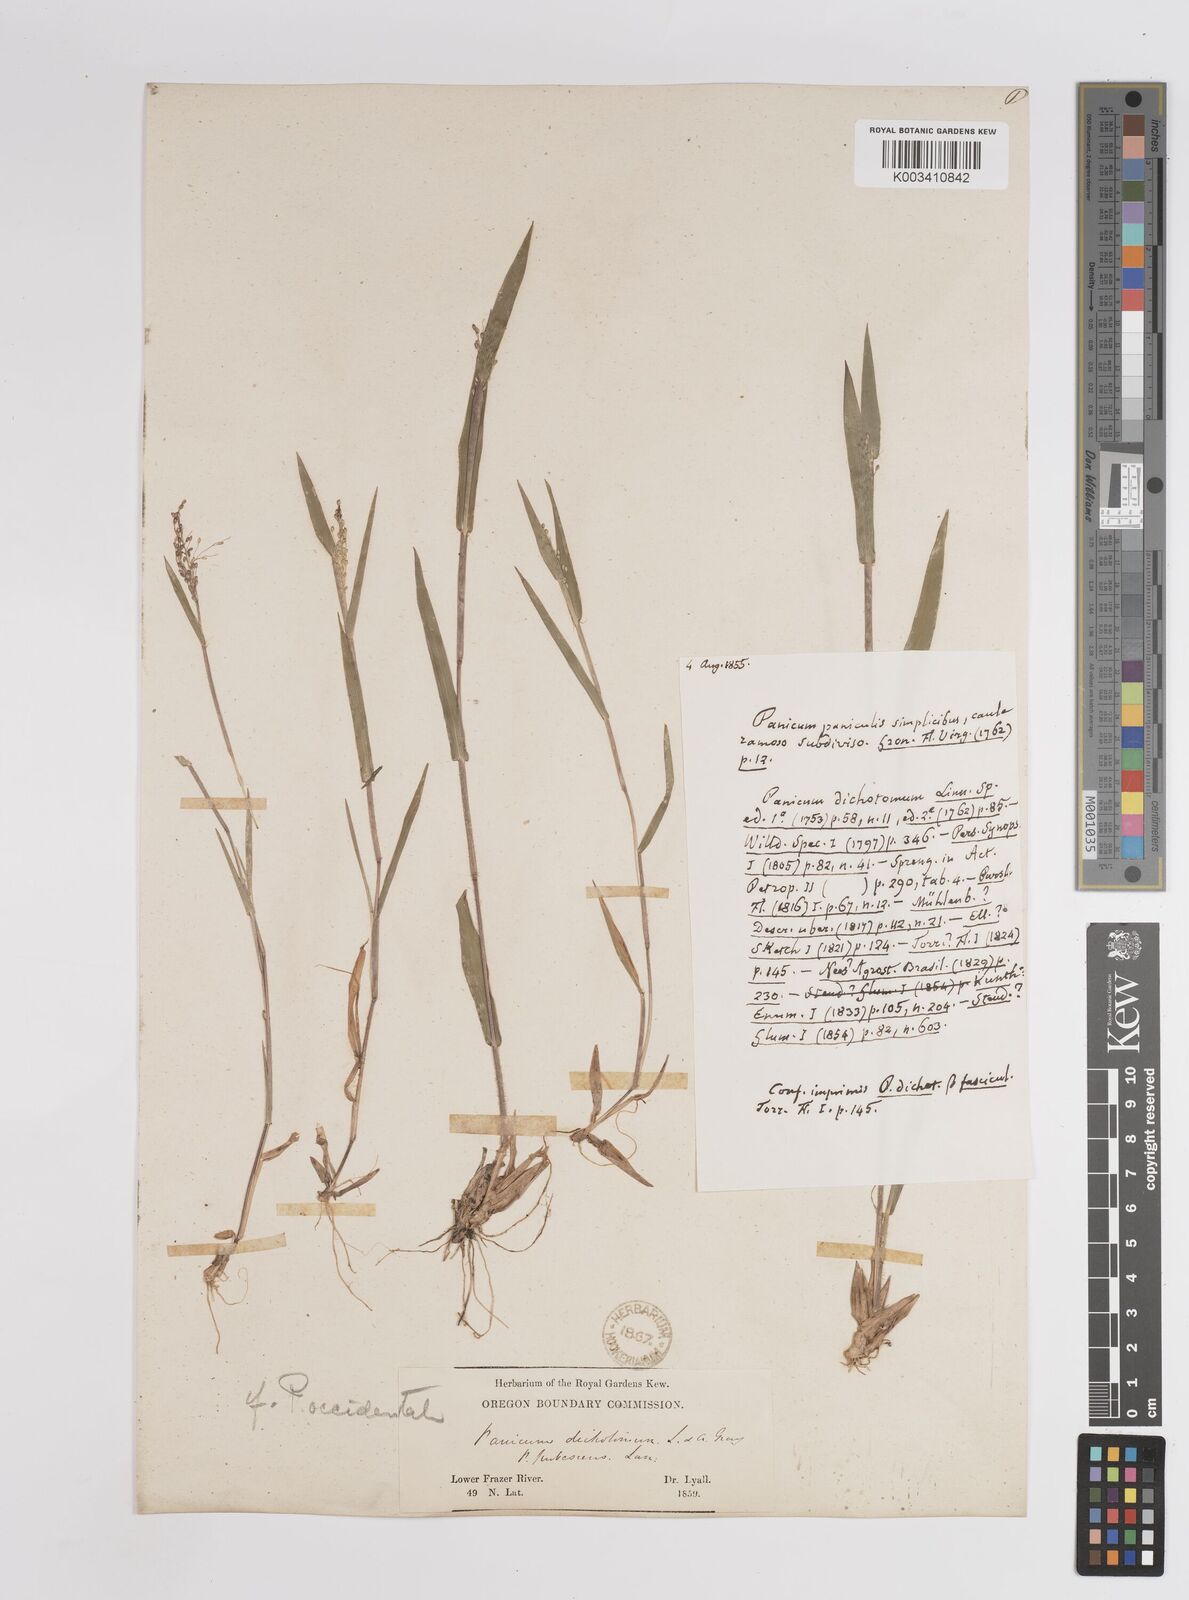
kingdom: Plantae
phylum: Tracheophyta
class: Liliopsida
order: Poales
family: Poaceae
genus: Dichanthelium
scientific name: Dichanthelium implicatum
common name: Slender-stemmed panicgrass
